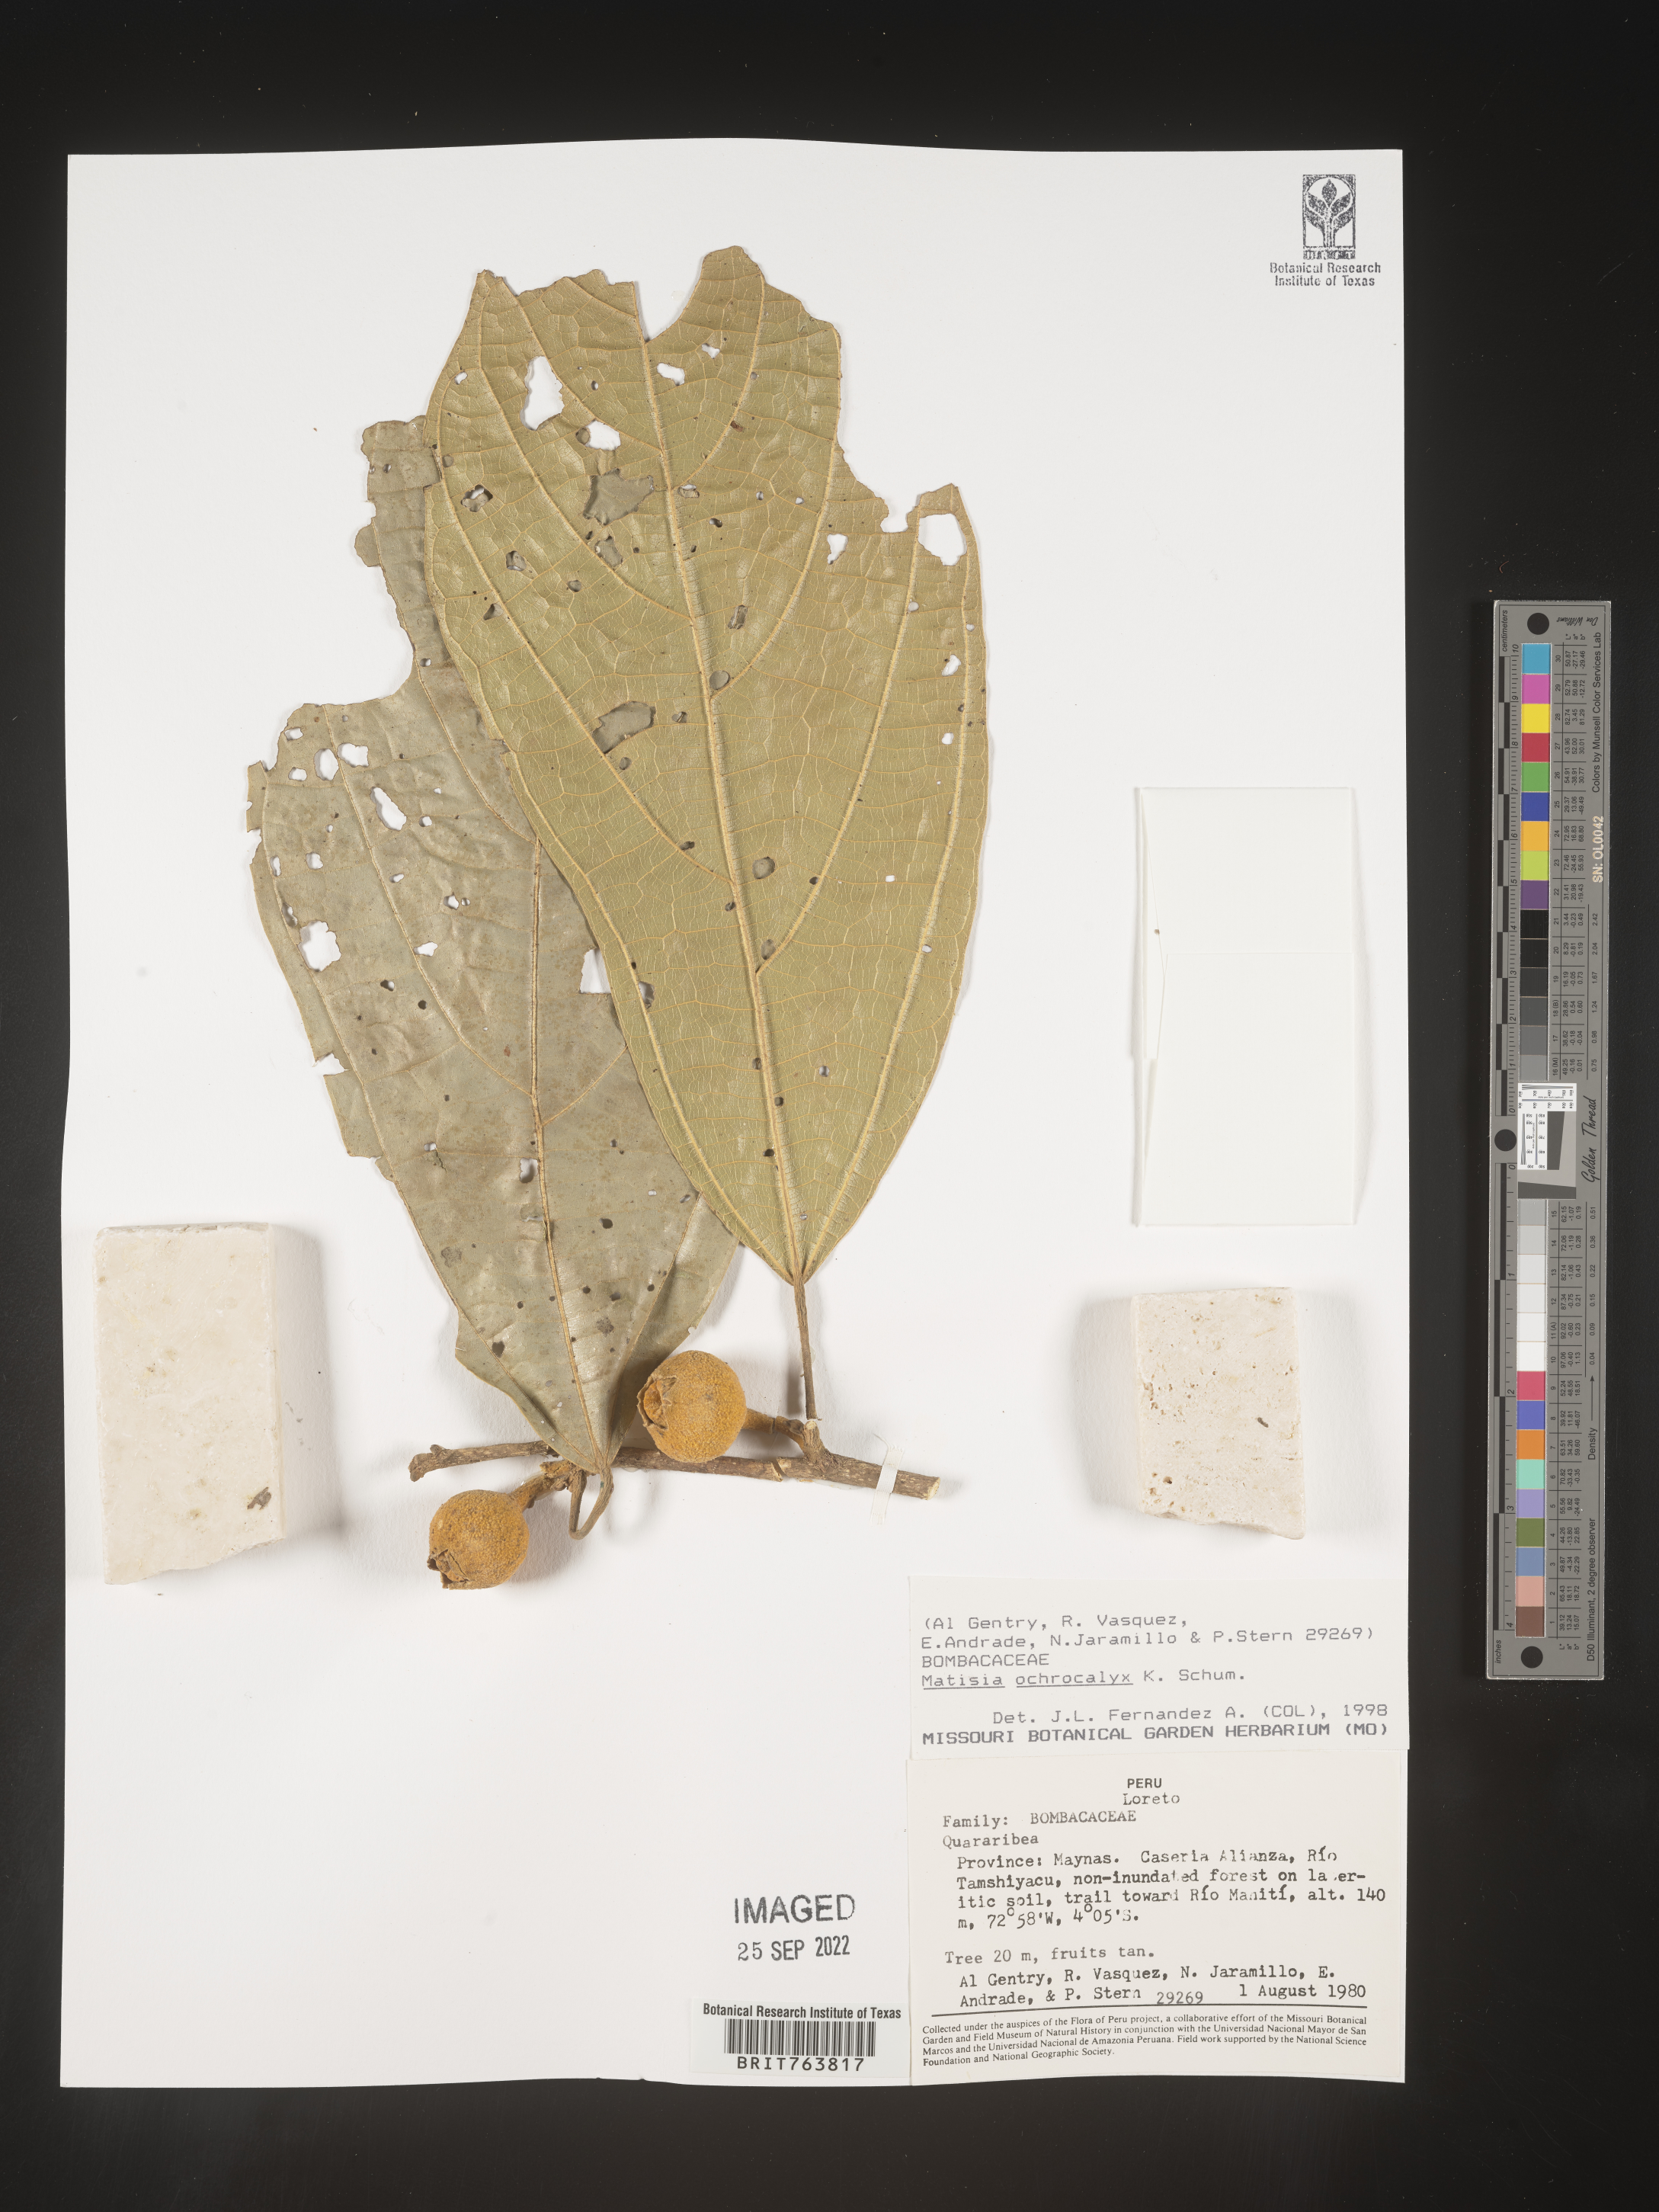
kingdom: Plantae
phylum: Tracheophyta
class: Magnoliopsida
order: Malvales
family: Malvaceae
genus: Matisia
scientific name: Matisia
